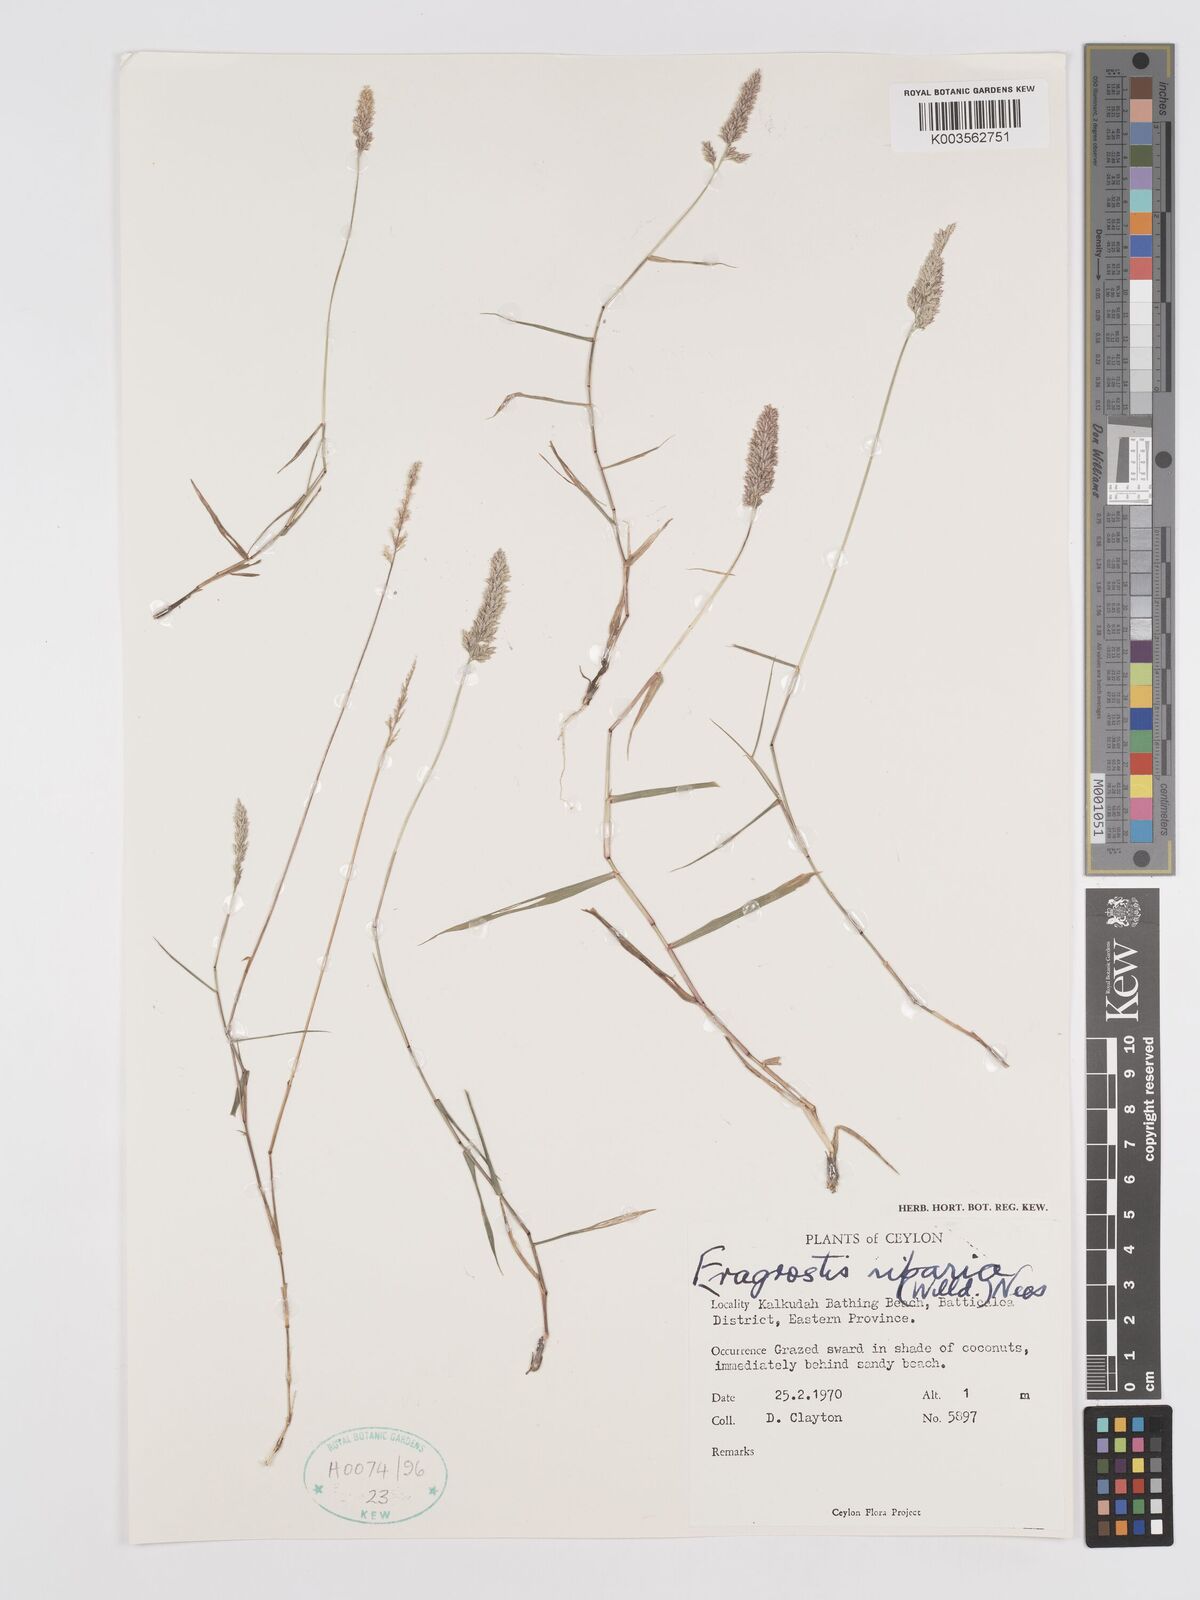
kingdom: Plantae
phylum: Tracheophyta
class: Liliopsida
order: Poales
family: Poaceae
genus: Eragrostis
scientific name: Eragrostis riparia
